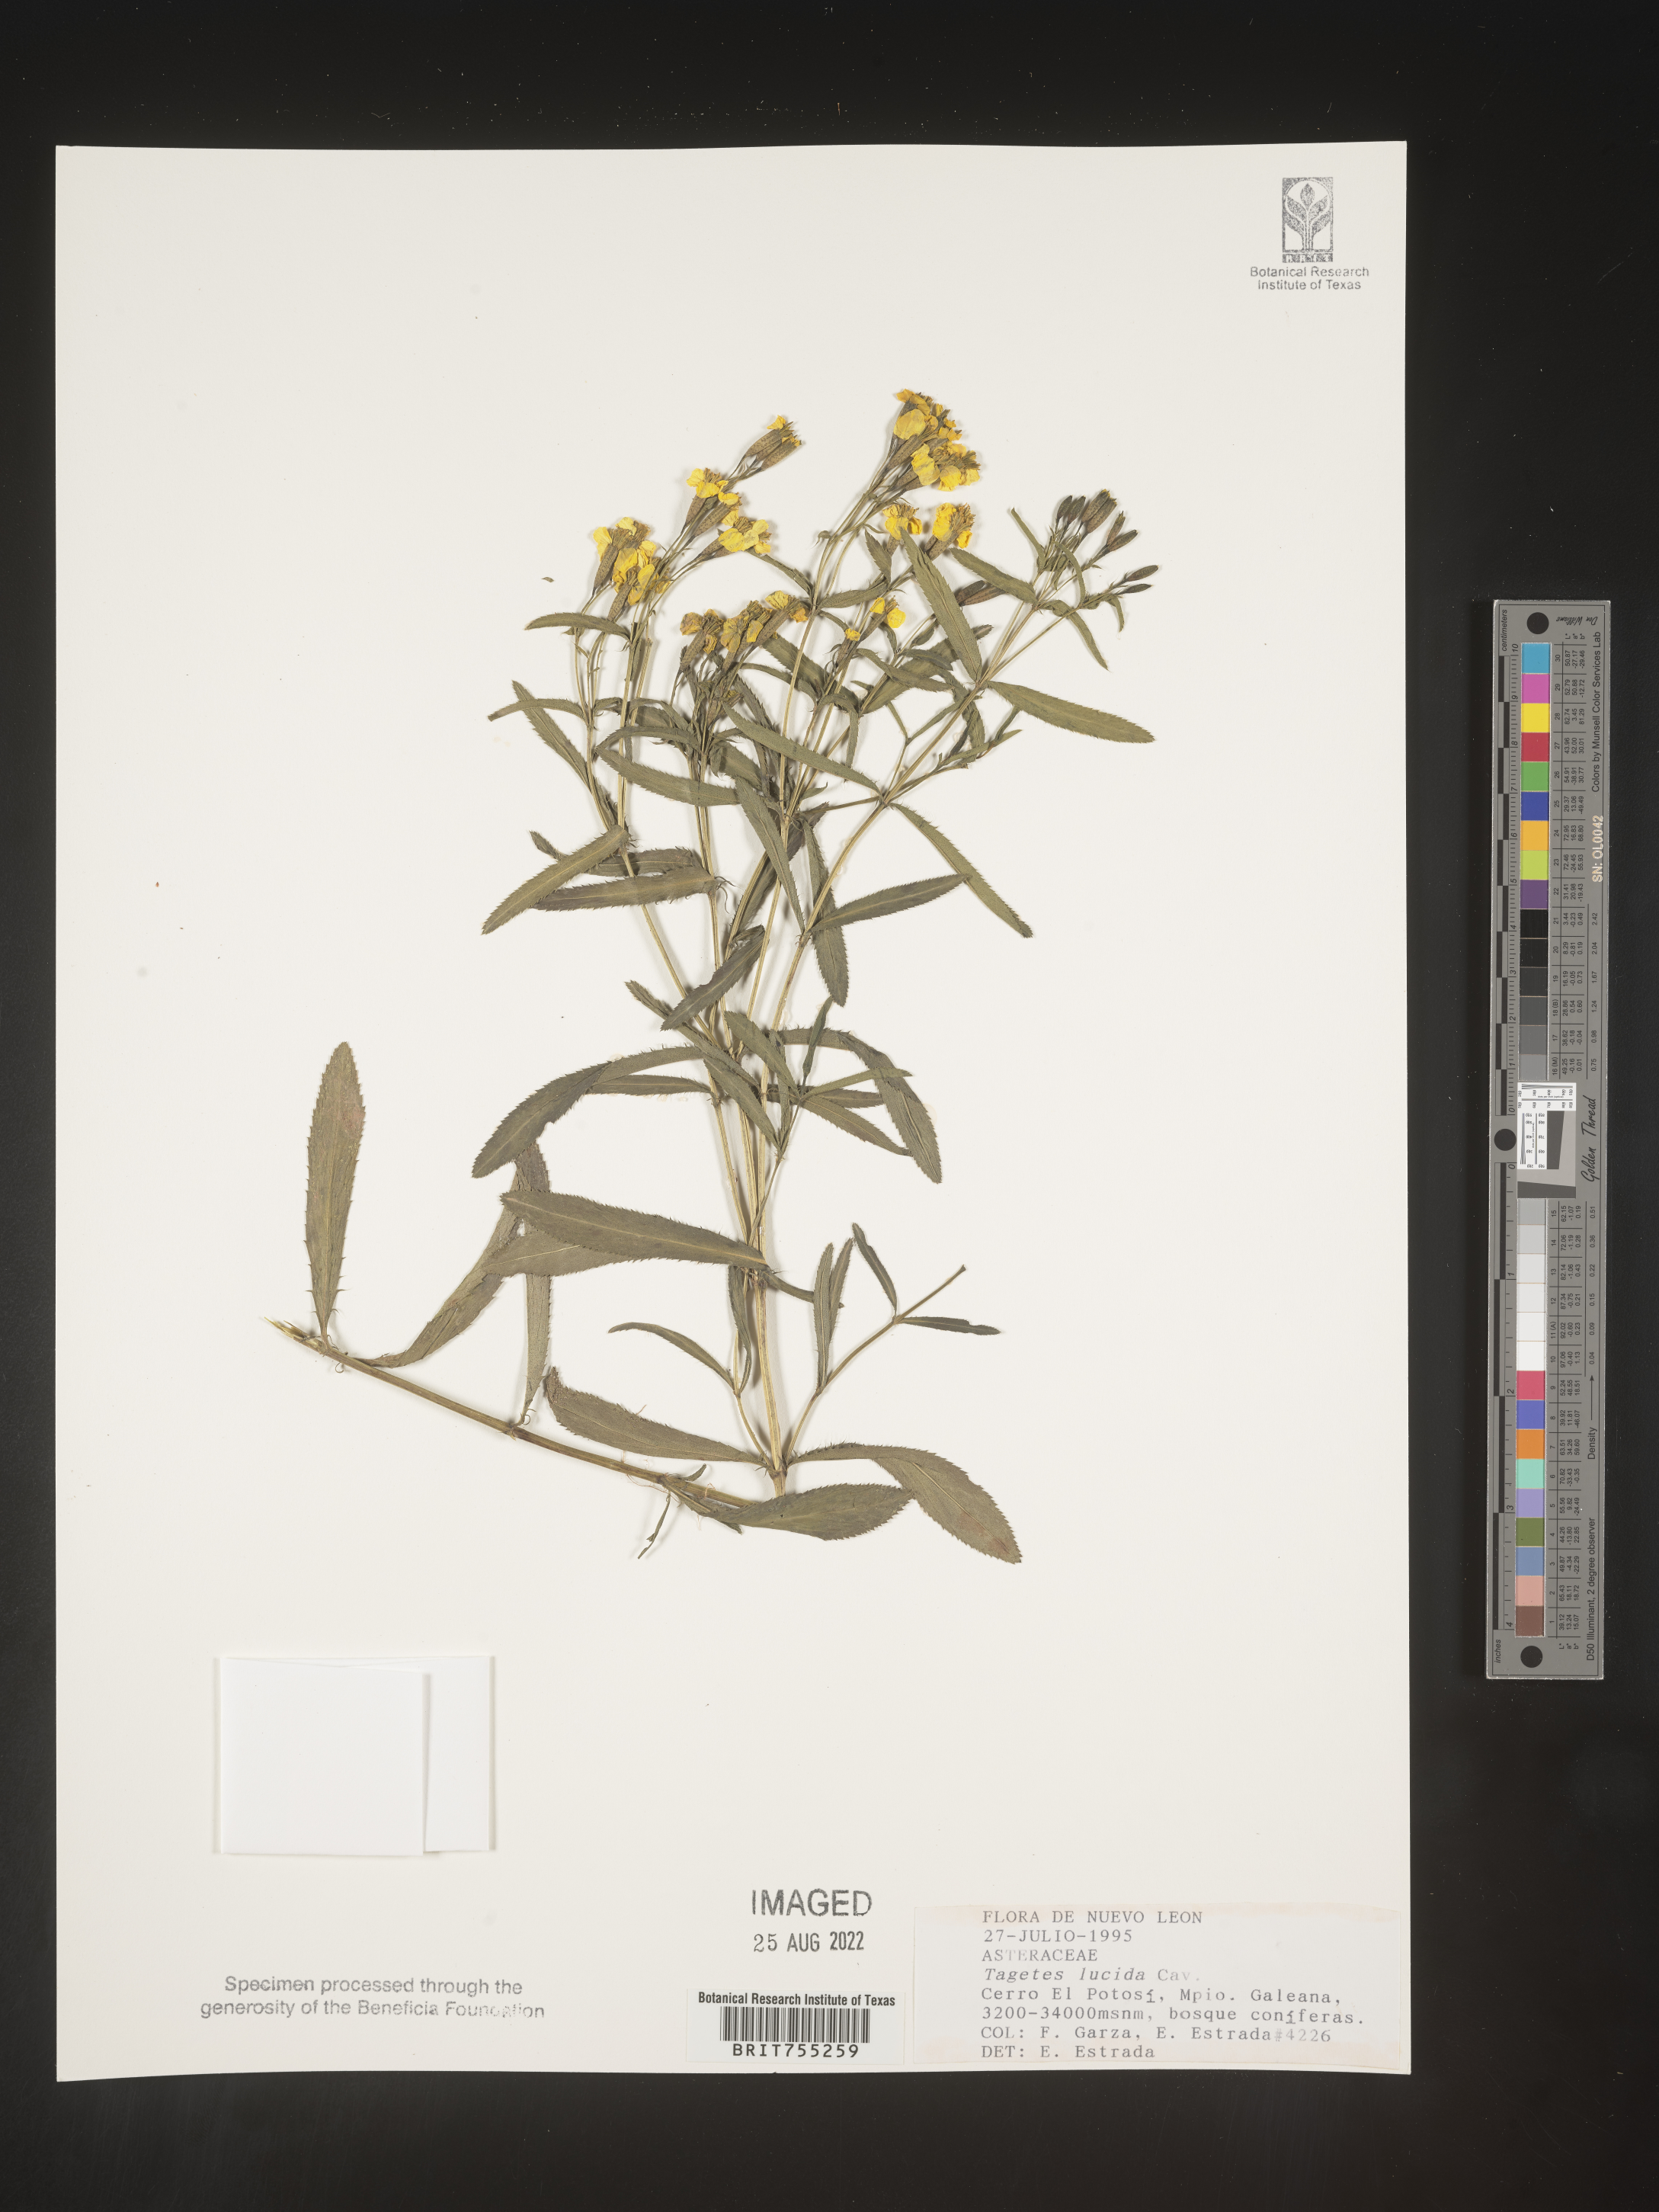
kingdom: Plantae
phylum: Tracheophyta
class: Magnoliopsida
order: Asterales
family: Asteraceae
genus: Tagetes
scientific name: Tagetes lucida
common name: Sweetscented marigold
